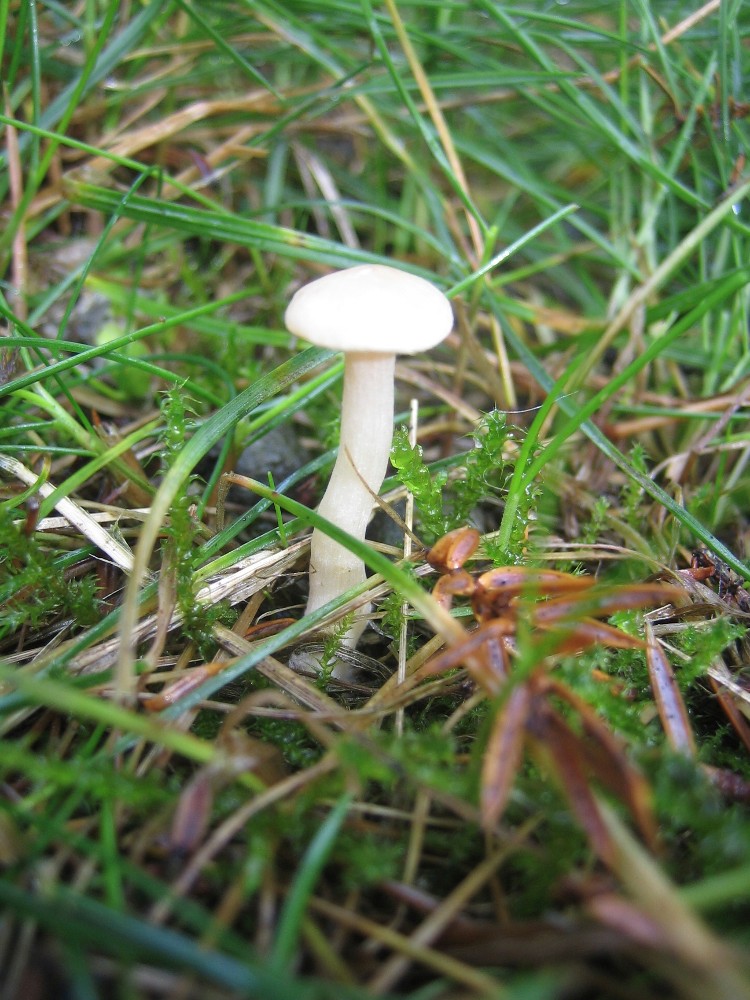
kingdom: Fungi
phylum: Basidiomycota
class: Agaricomycetes
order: Agaricales
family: Tricholomataceae
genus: Clitocybe
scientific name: Clitocybe
